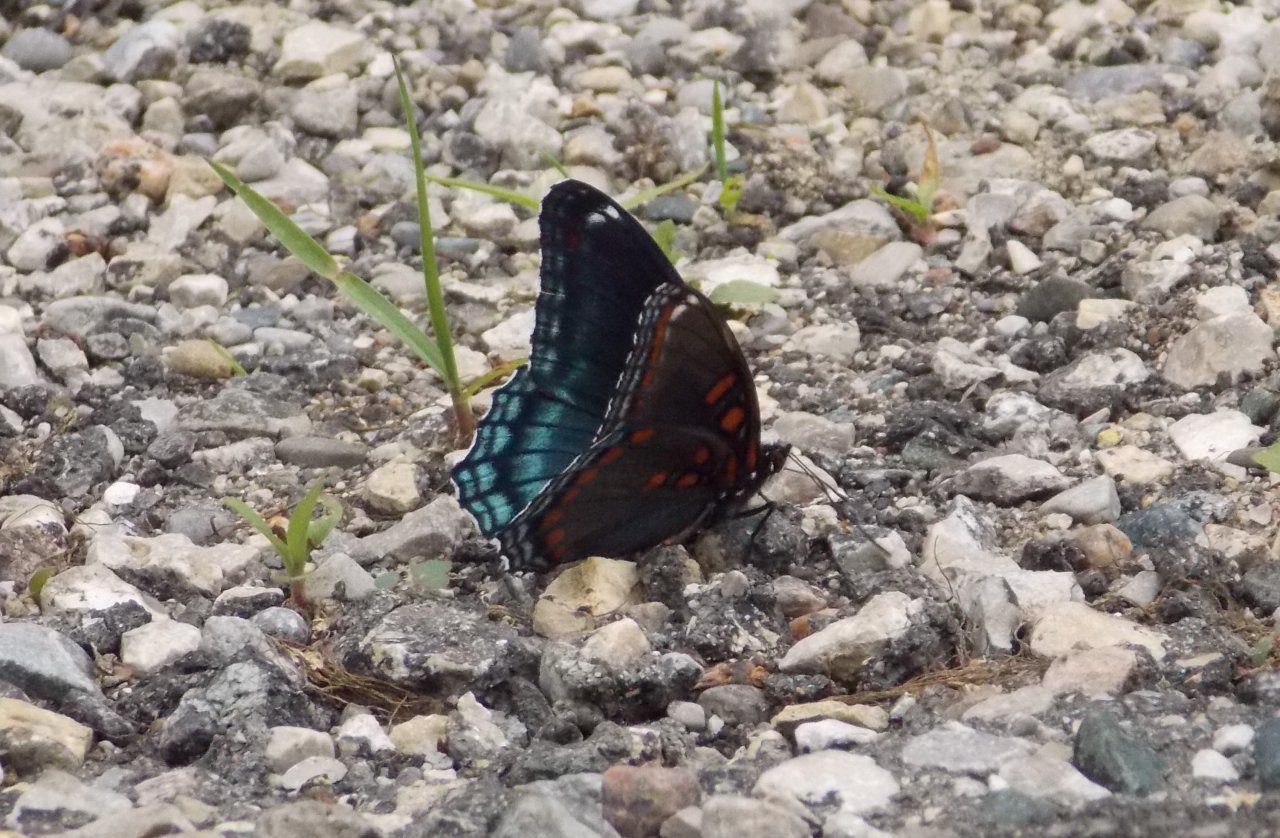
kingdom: Animalia
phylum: Arthropoda
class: Insecta
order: Lepidoptera
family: Nymphalidae
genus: Limenitis
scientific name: Limenitis astyanax
